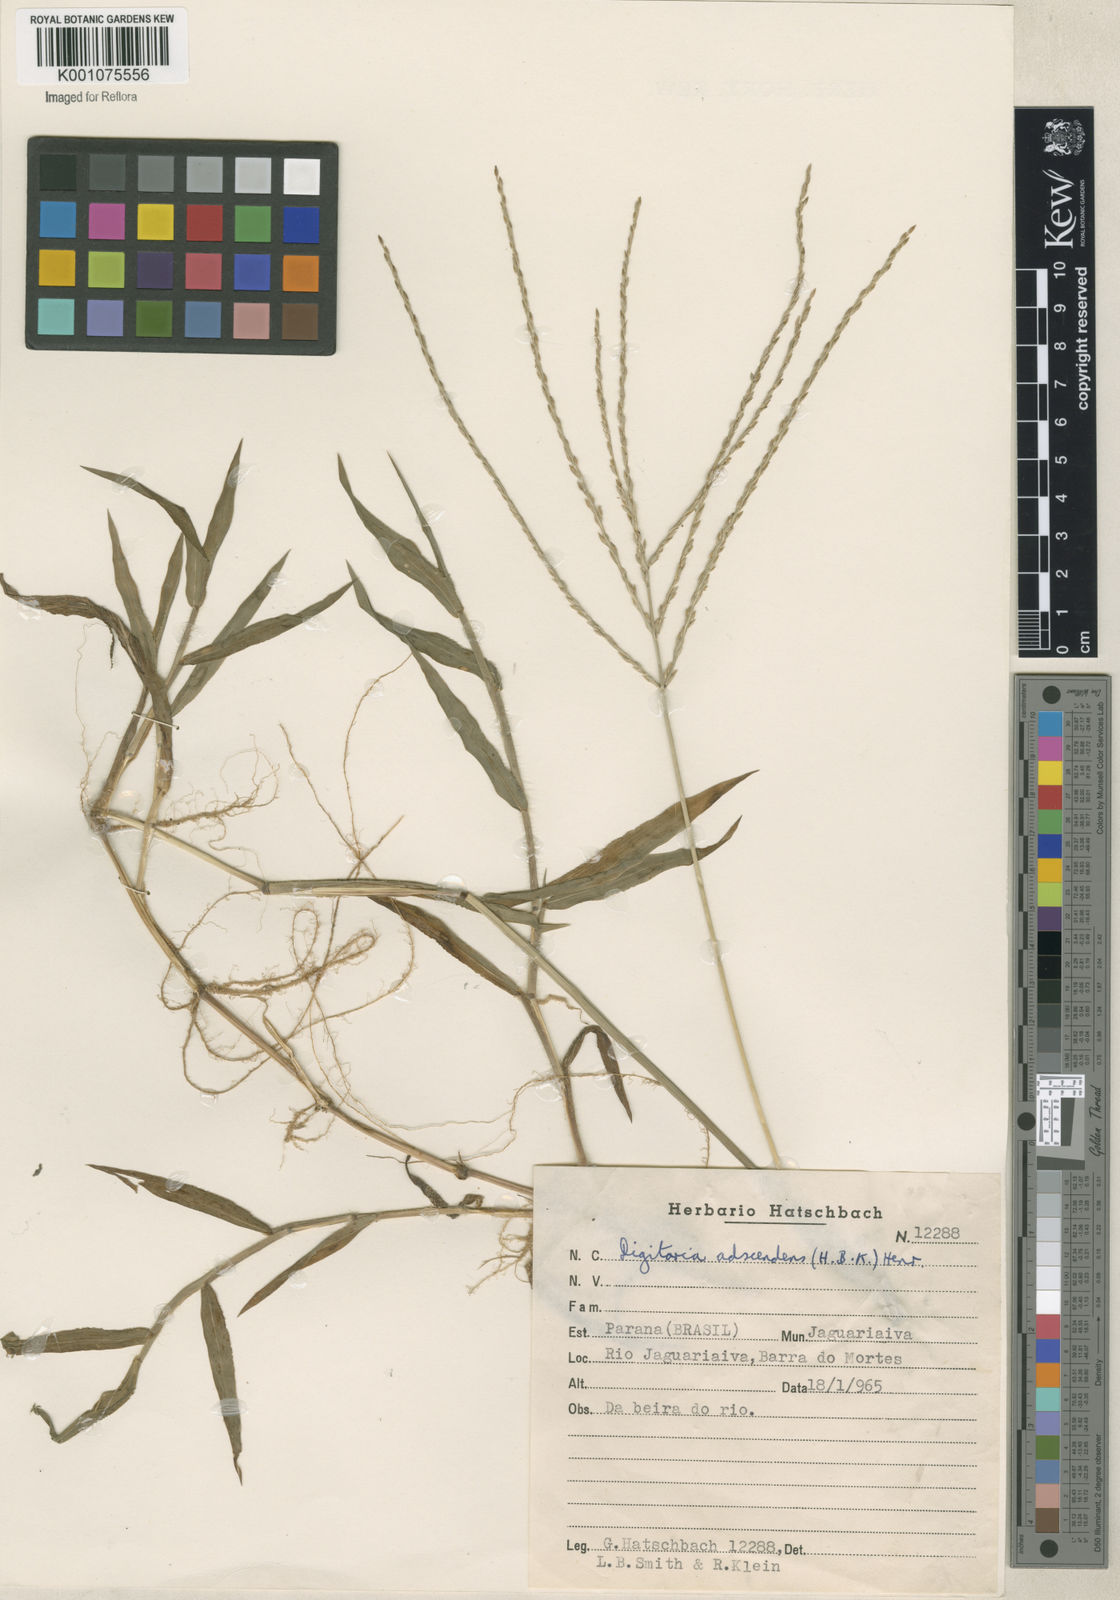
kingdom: Plantae
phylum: Tracheophyta
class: Liliopsida
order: Poales
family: Poaceae
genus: Digitaria
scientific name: Digitaria ciliaris
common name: Tropical finger-grass
